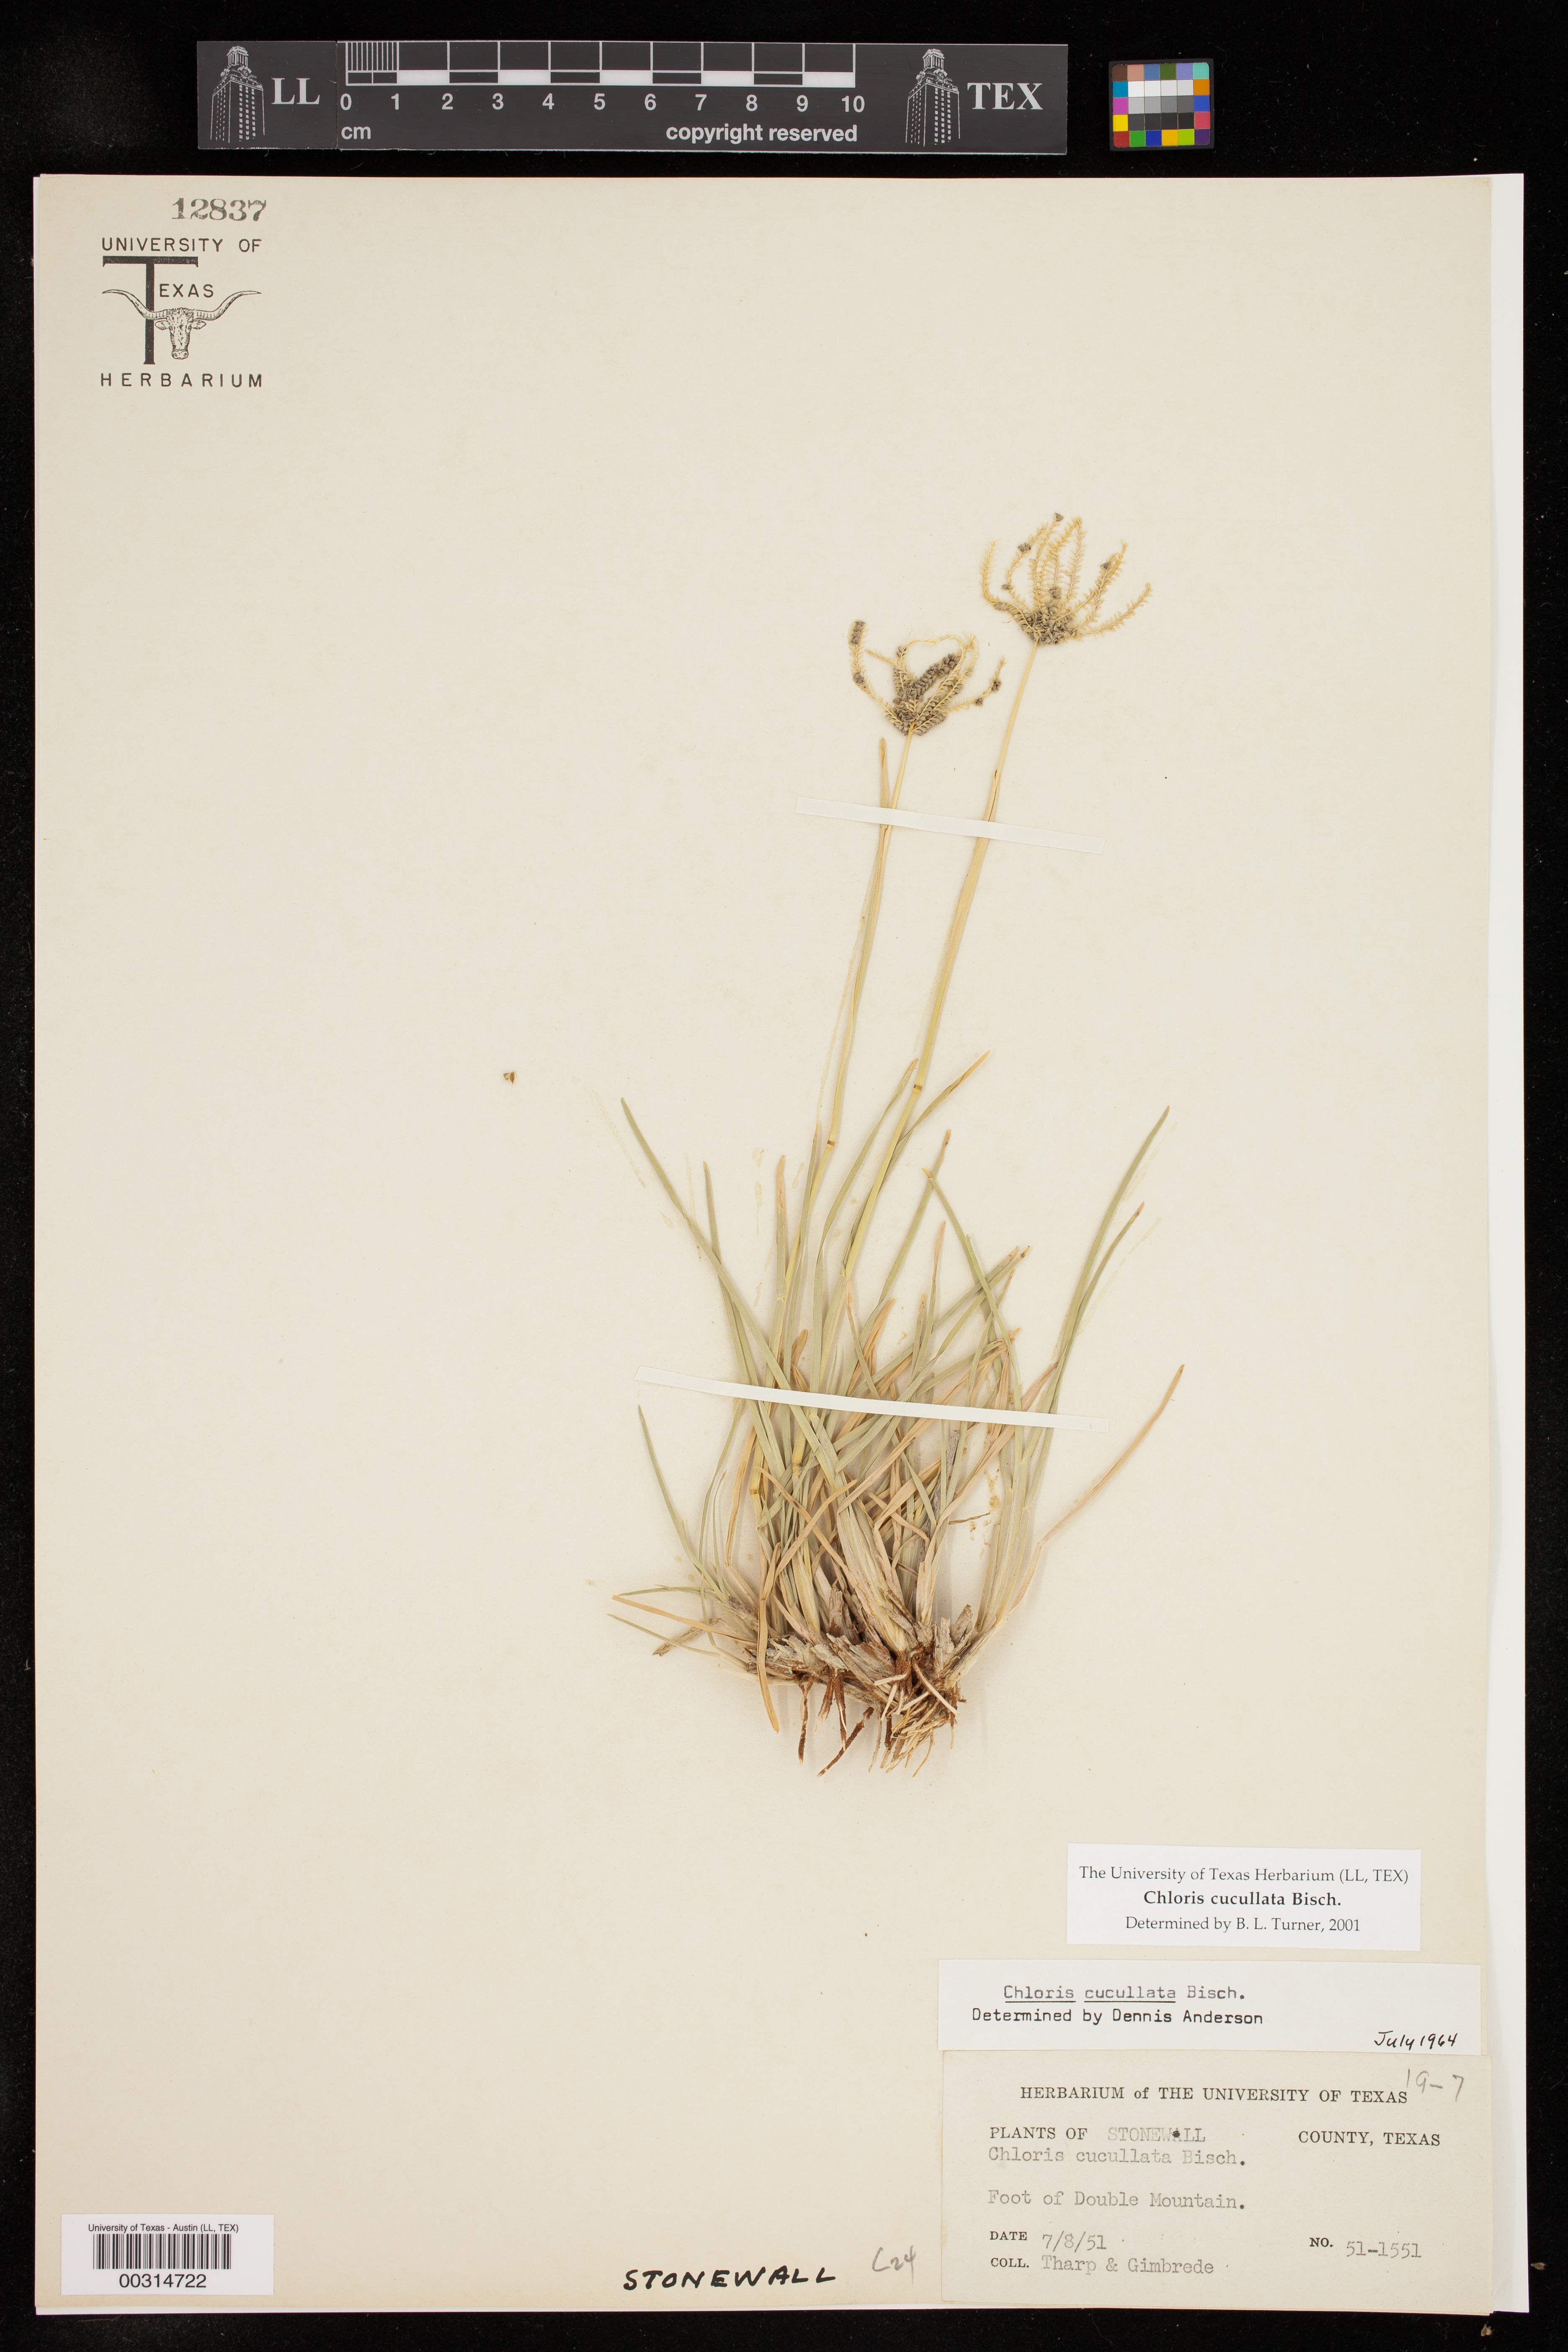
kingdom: Plantae
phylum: Tracheophyta
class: Liliopsida
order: Poales
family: Poaceae
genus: Chloris
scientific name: Chloris cucullata
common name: Hooded windmill grass
